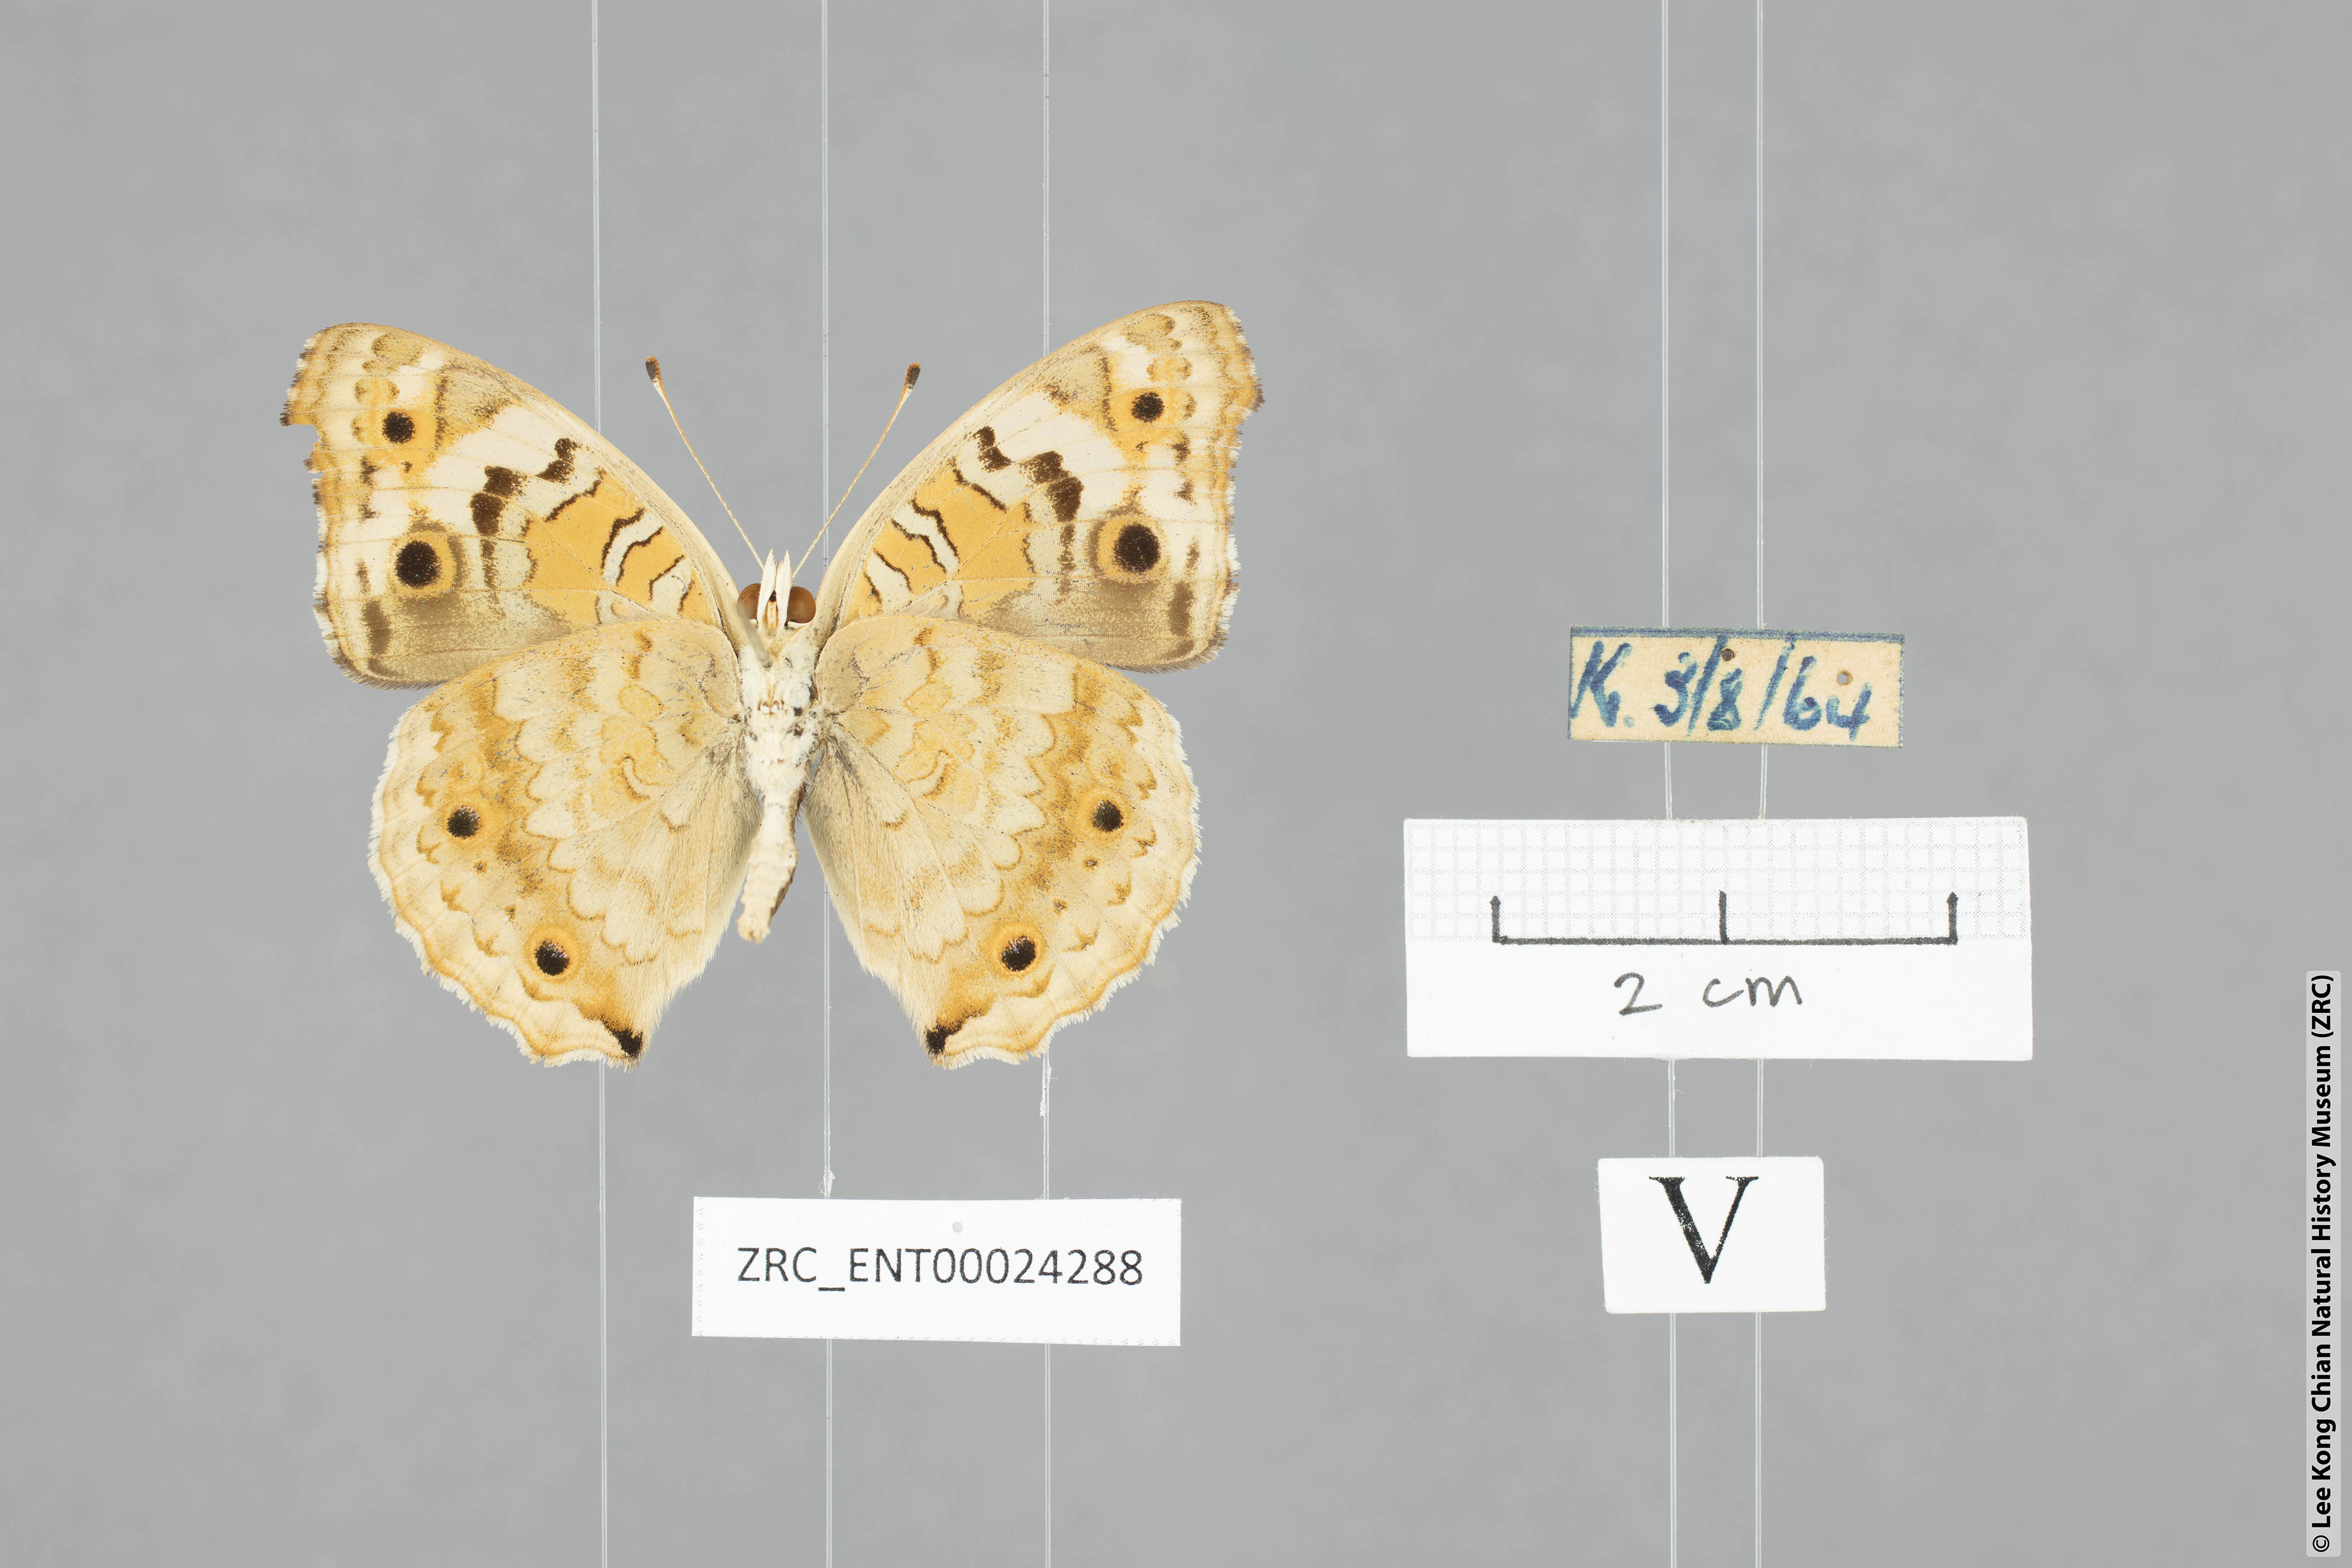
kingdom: Animalia
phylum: Arthropoda
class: Insecta
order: Lepidoptera
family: Nymphalidae
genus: Junonia
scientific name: Junonia orithya
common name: Blue pansy
